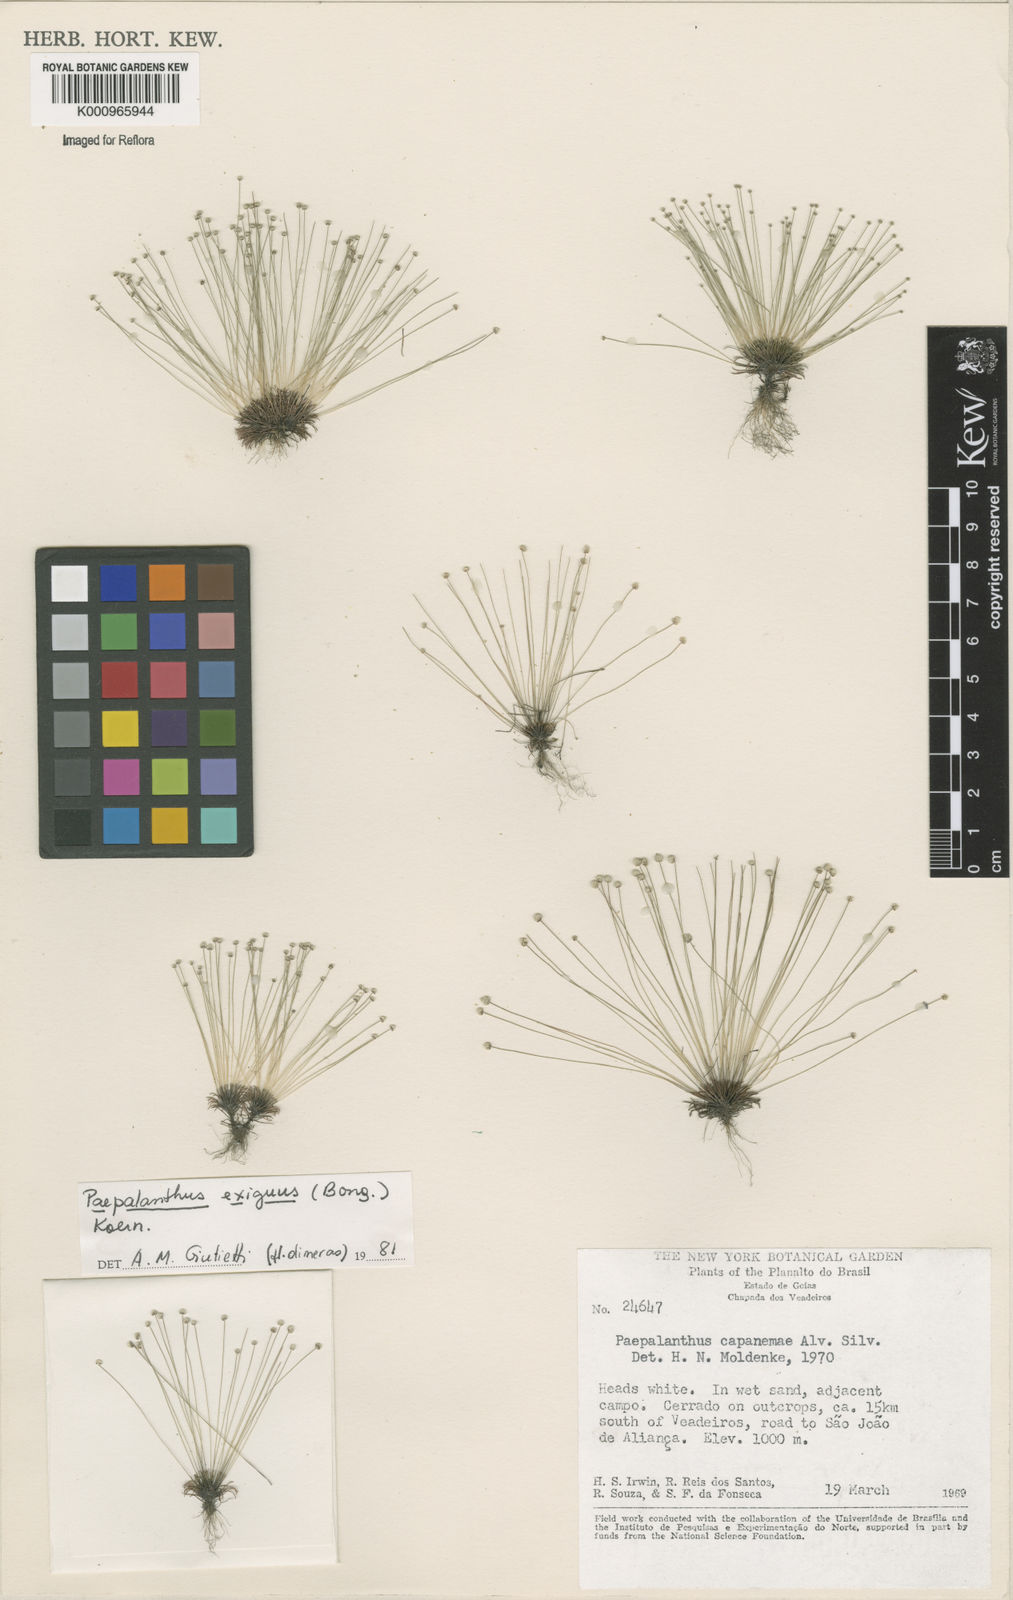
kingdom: Plantae
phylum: Tracheophyta
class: Liliopsida
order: Poales
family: Eriocaulaceae
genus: Paepalanthus
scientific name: Paepalanthus
